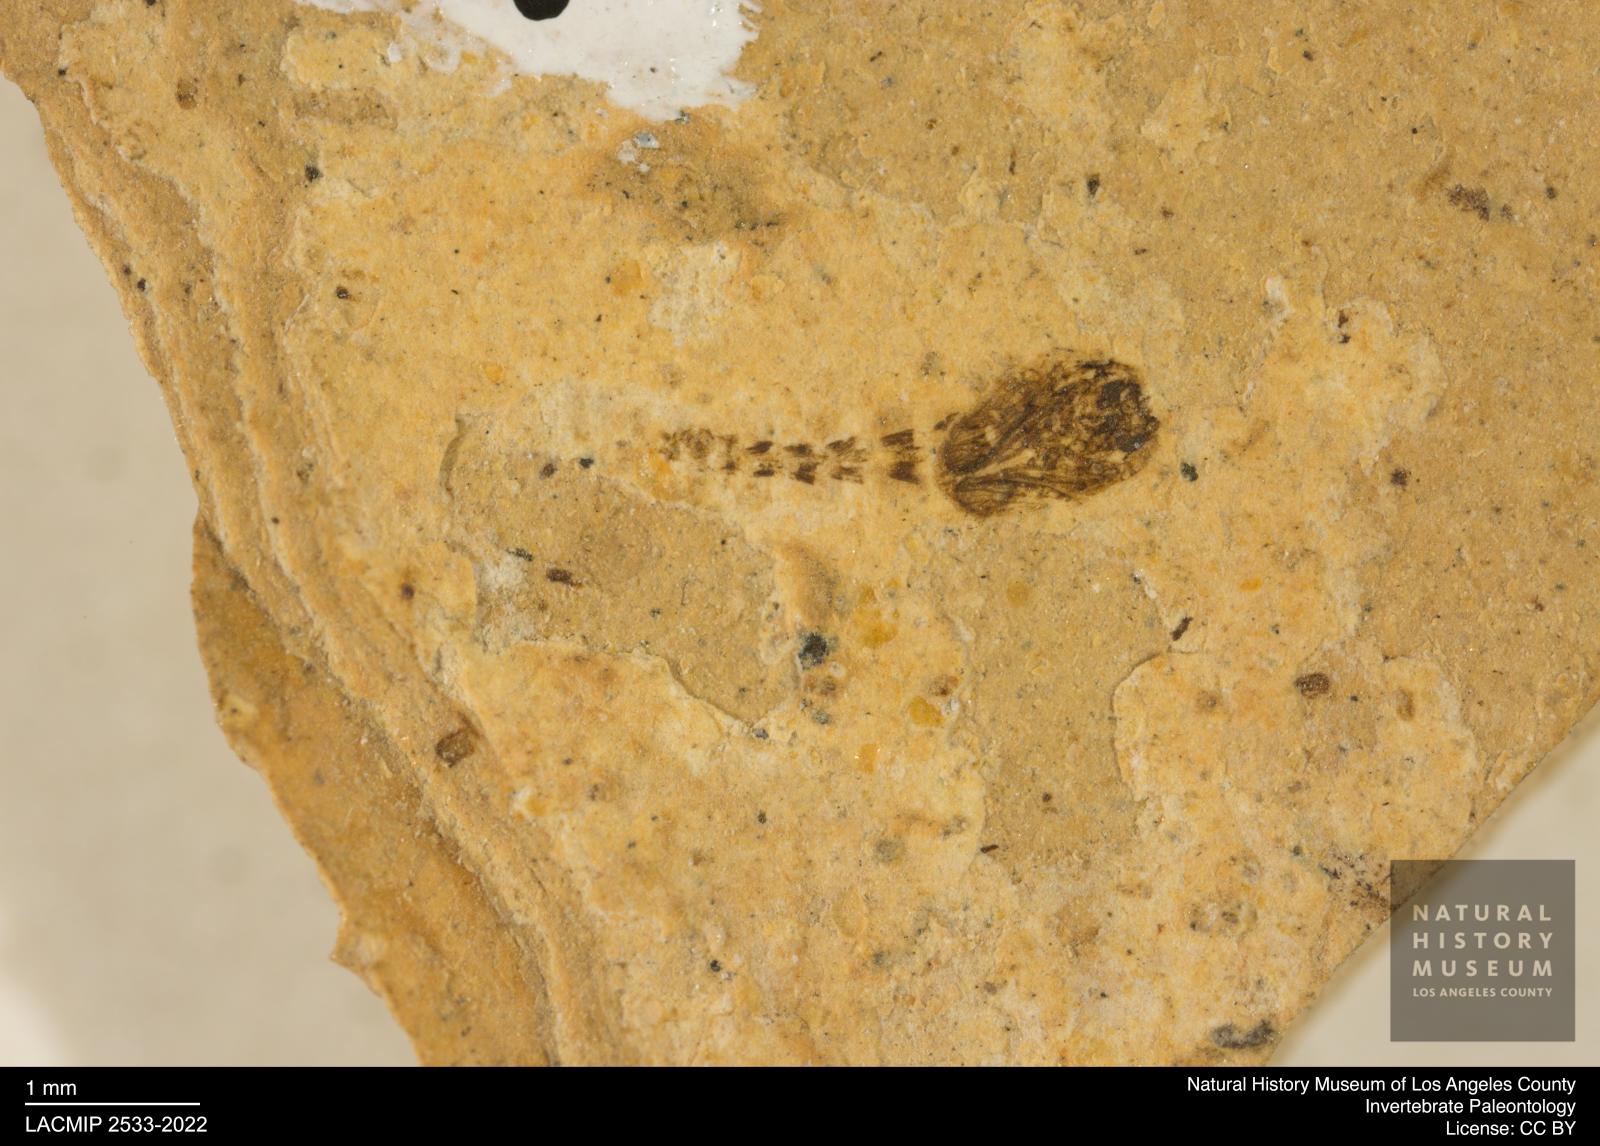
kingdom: Animalia
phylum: Arthropoda
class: Insecta
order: Diptera
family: Ceratopogonidae
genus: Ceratopogon
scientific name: Ceratopogon
